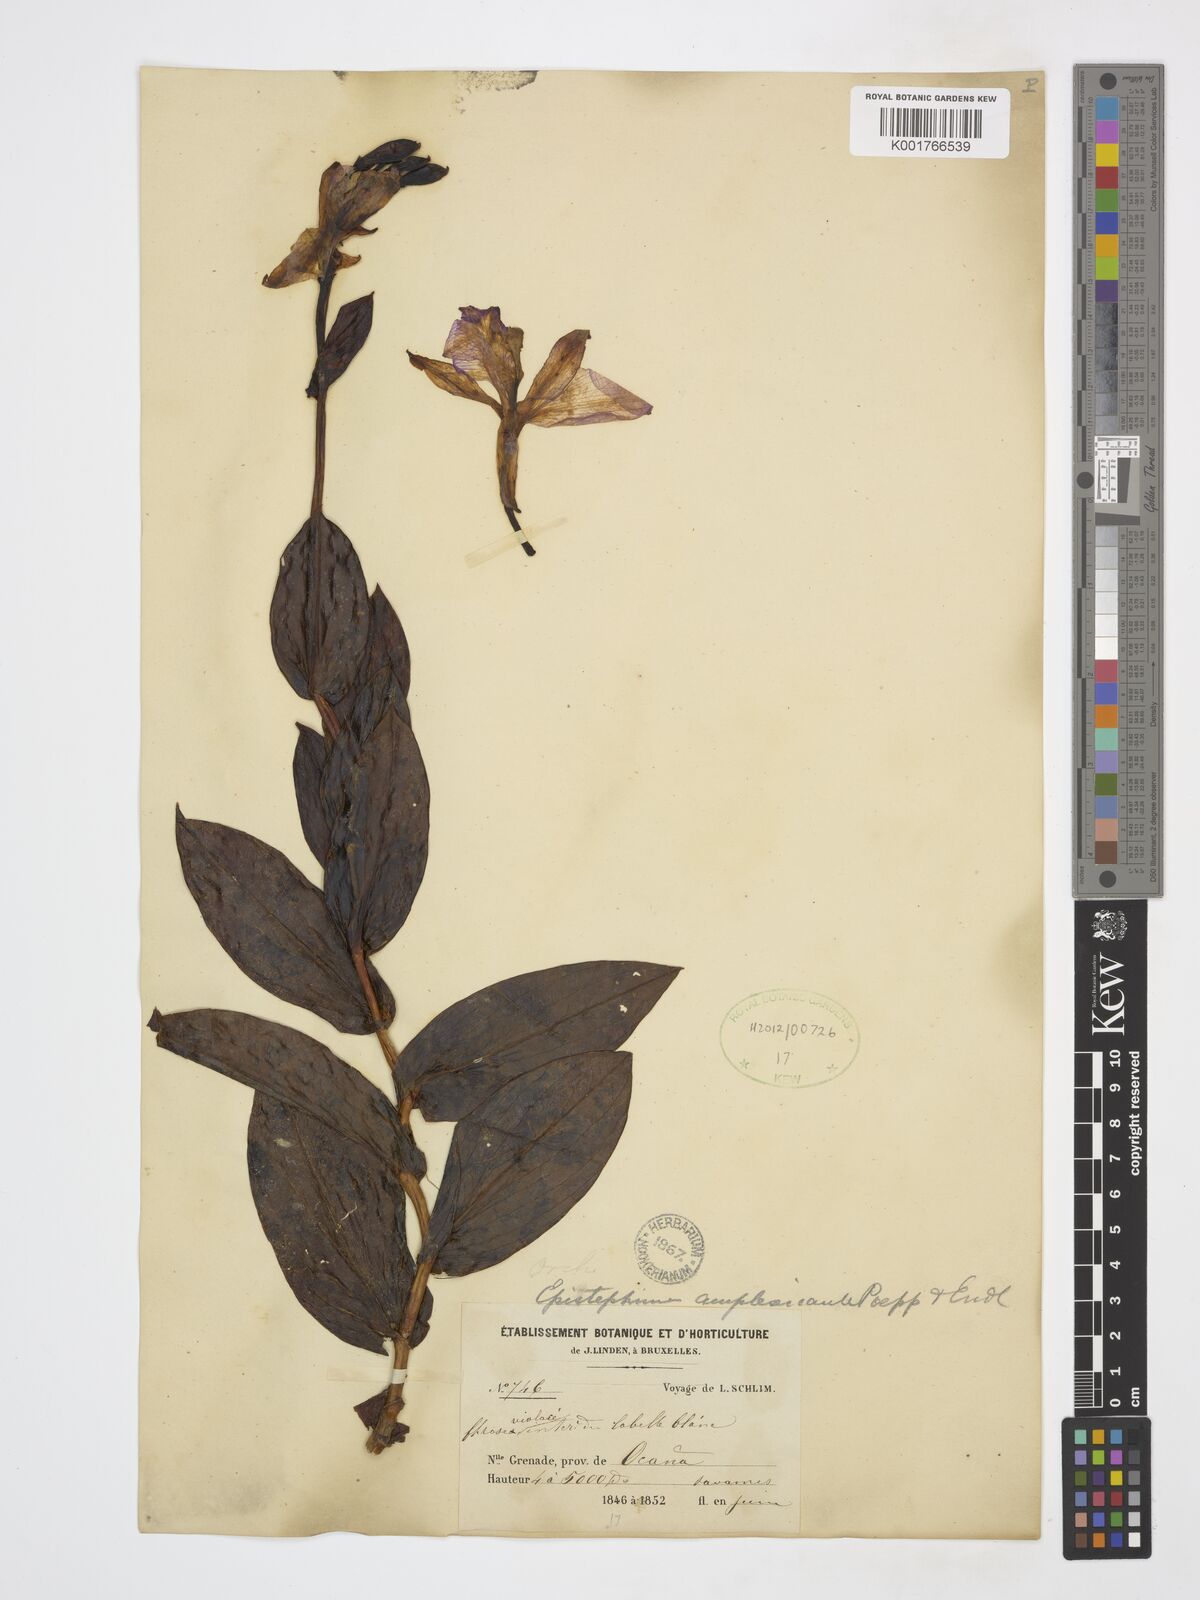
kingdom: Plantae
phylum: Tracheophyta
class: Liliopsida
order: Asparagales
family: Orchidaceae
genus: Epistephium
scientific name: Epistephium amplexicaule
